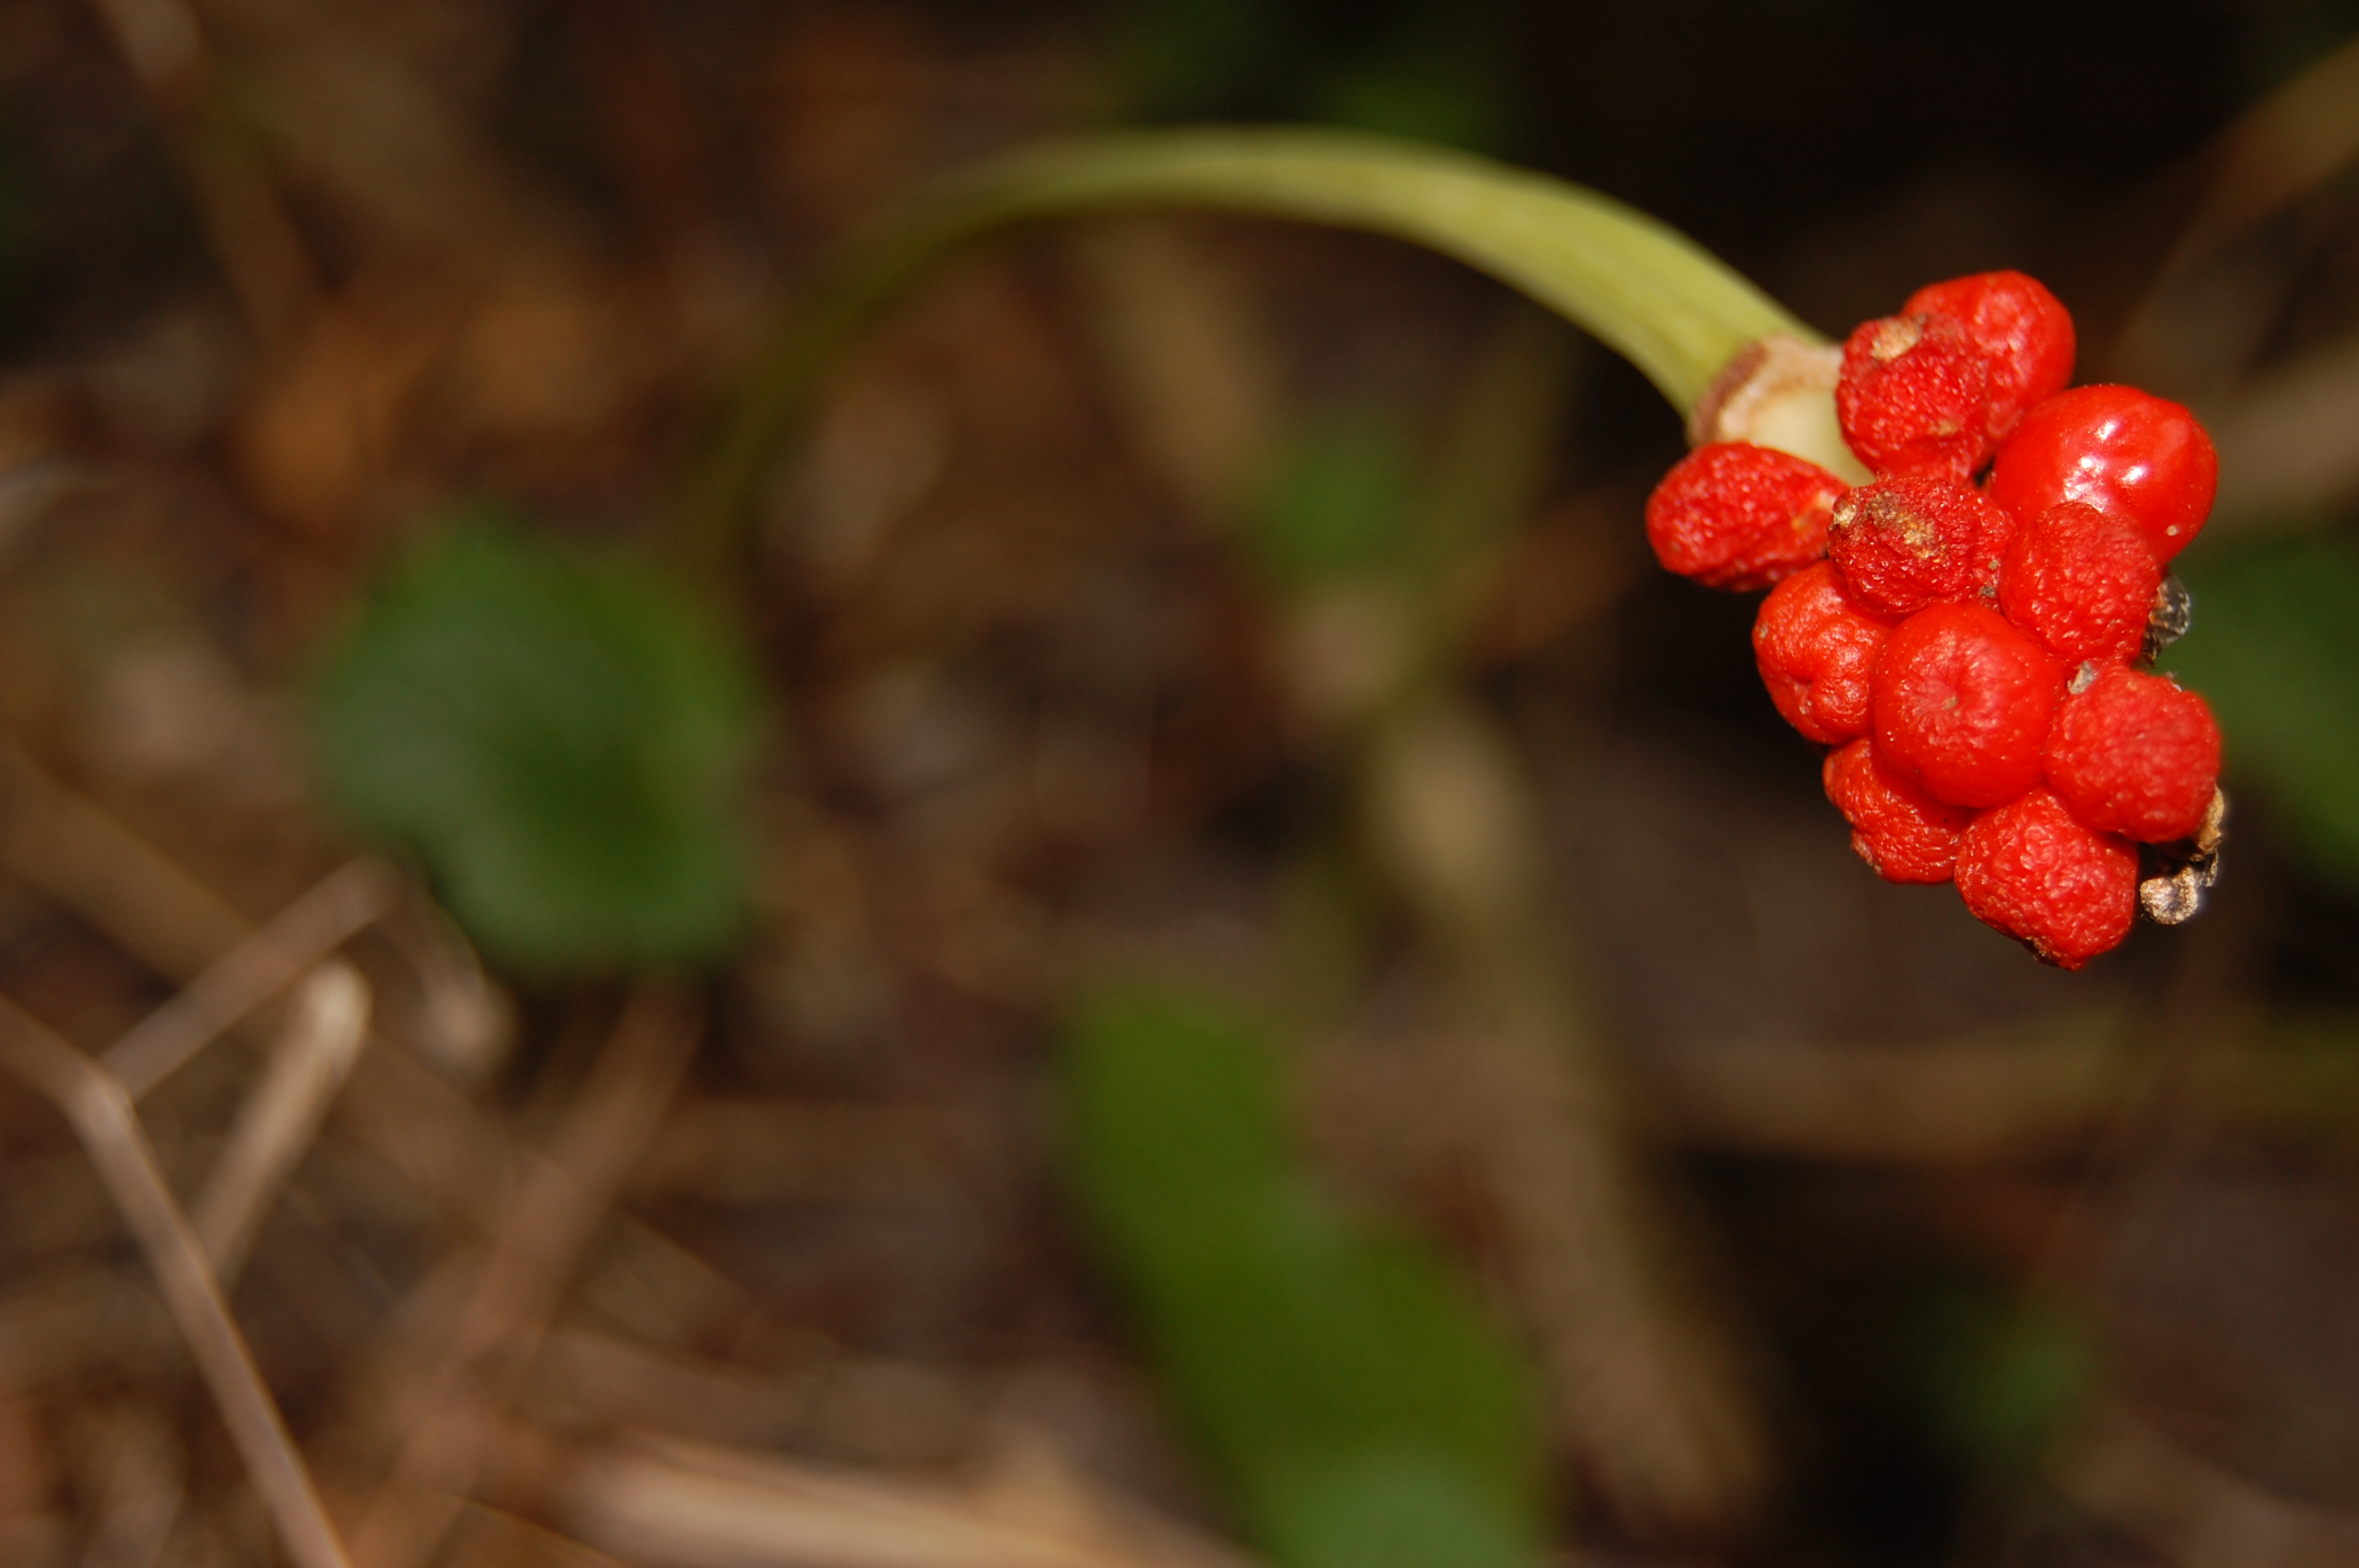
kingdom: Plantae
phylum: Tracheophyta
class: Liliopsida
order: Alismatales
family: Araceae
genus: Arum
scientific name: Arum cylindraceum
